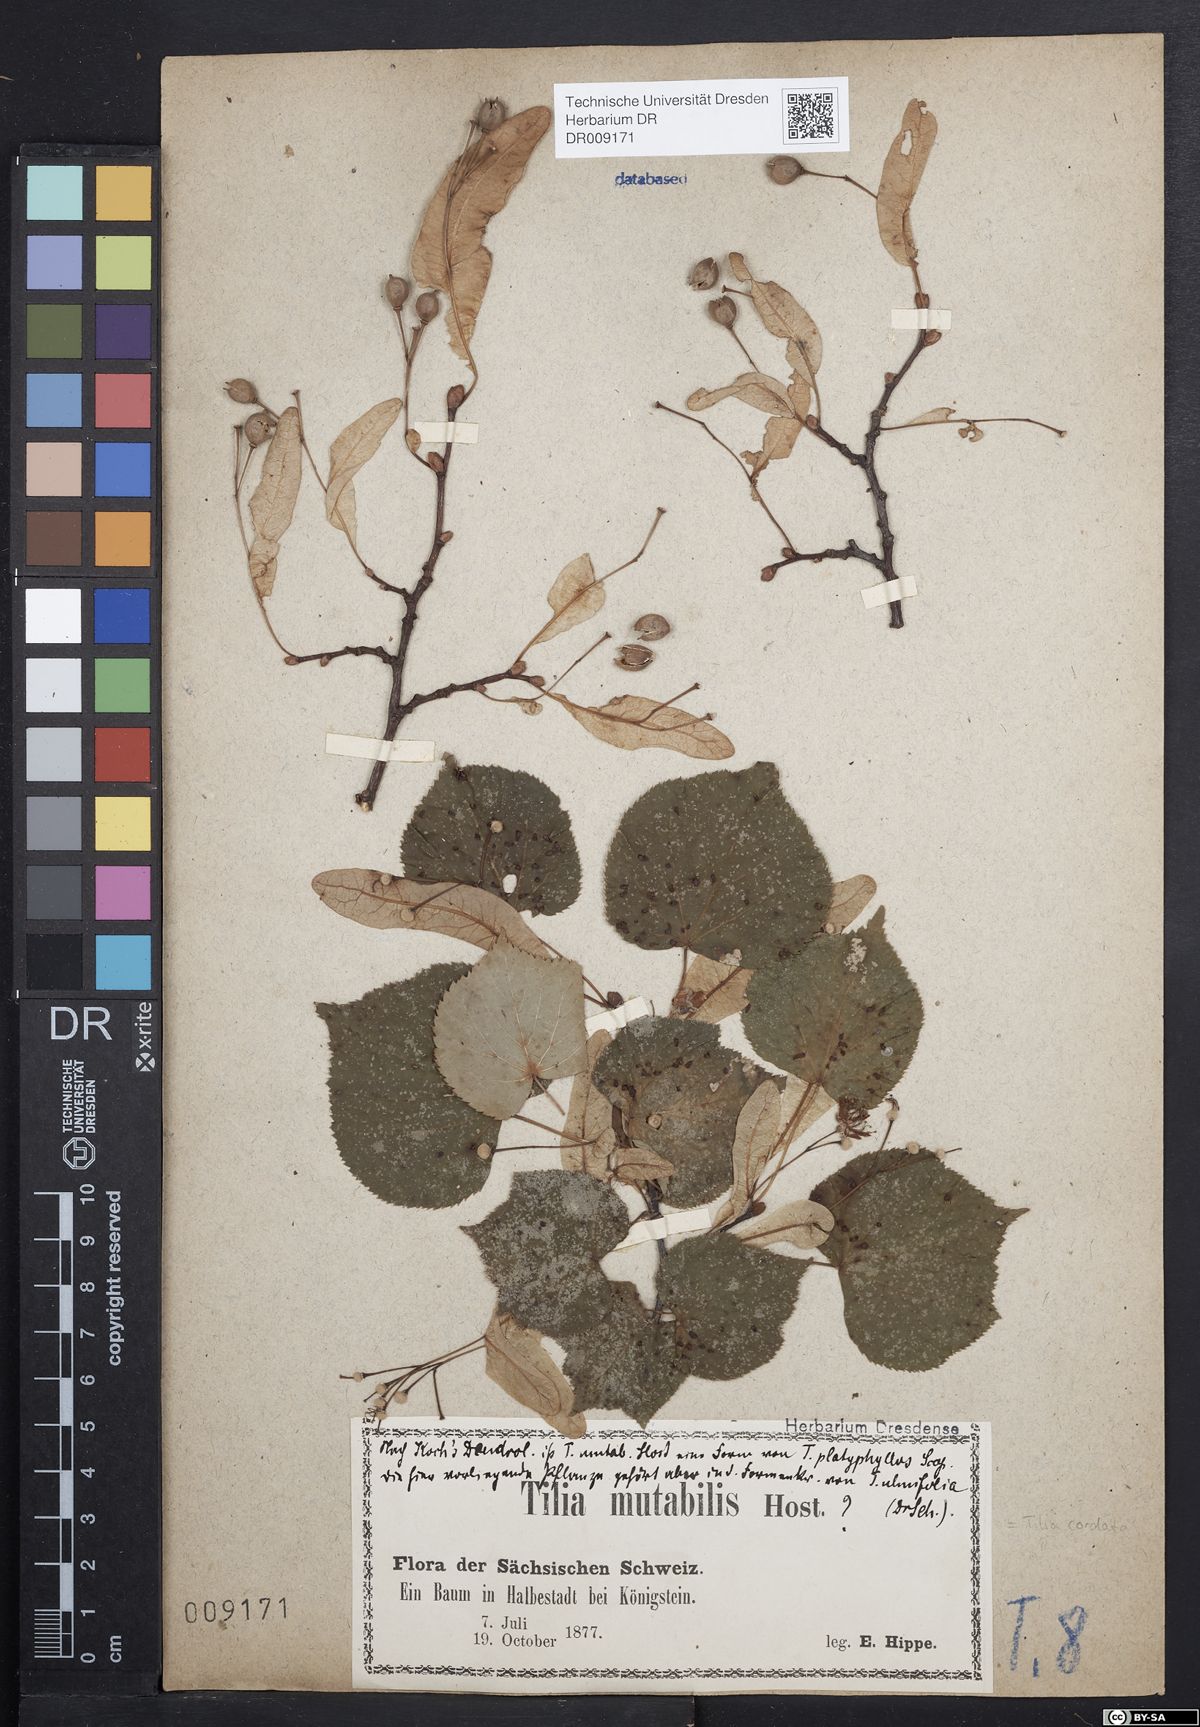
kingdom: Plantae
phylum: Tracheophyta
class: Magnoliopsida
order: Malvales
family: Malvaceae
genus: Tilia
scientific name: Tilia cordata
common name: Small-leaved lime
